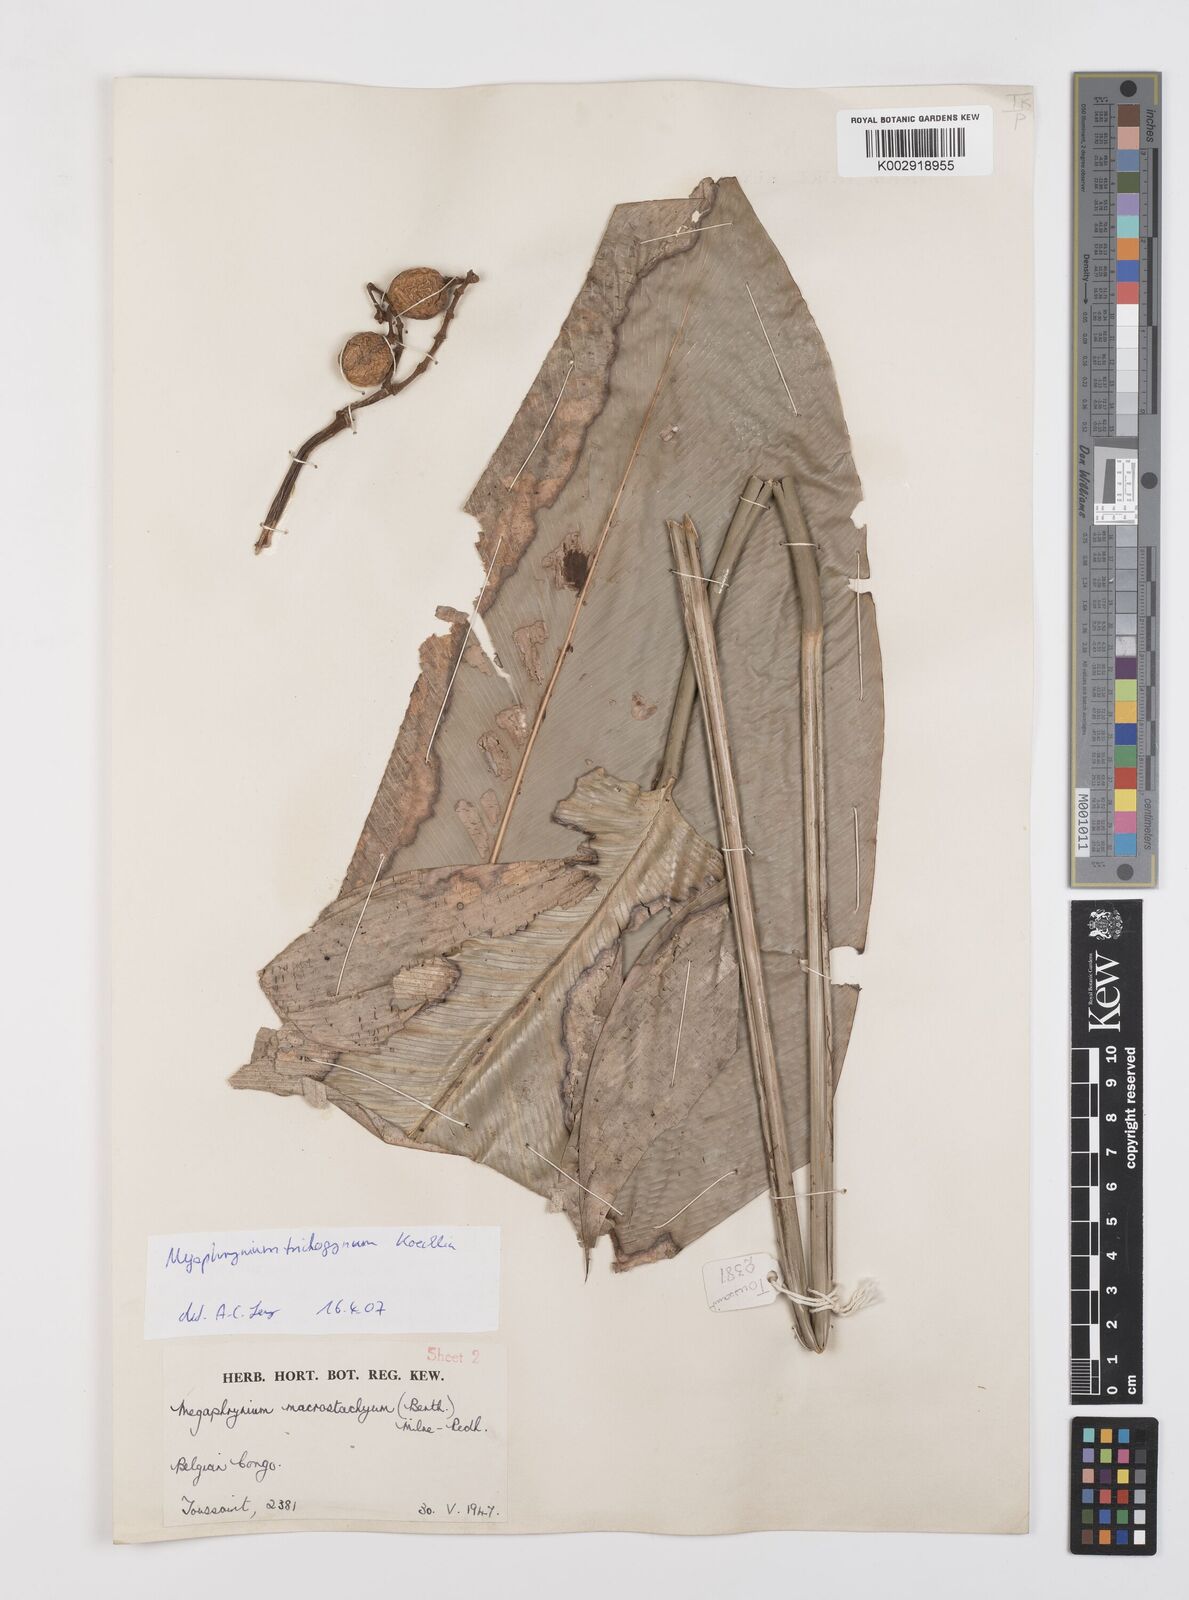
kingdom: Plantae
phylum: Tracheophyta
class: Liliopsida
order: Zingiberales
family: Marantaceae
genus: Megaphrynium
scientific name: Megaphrynium trichogynum
